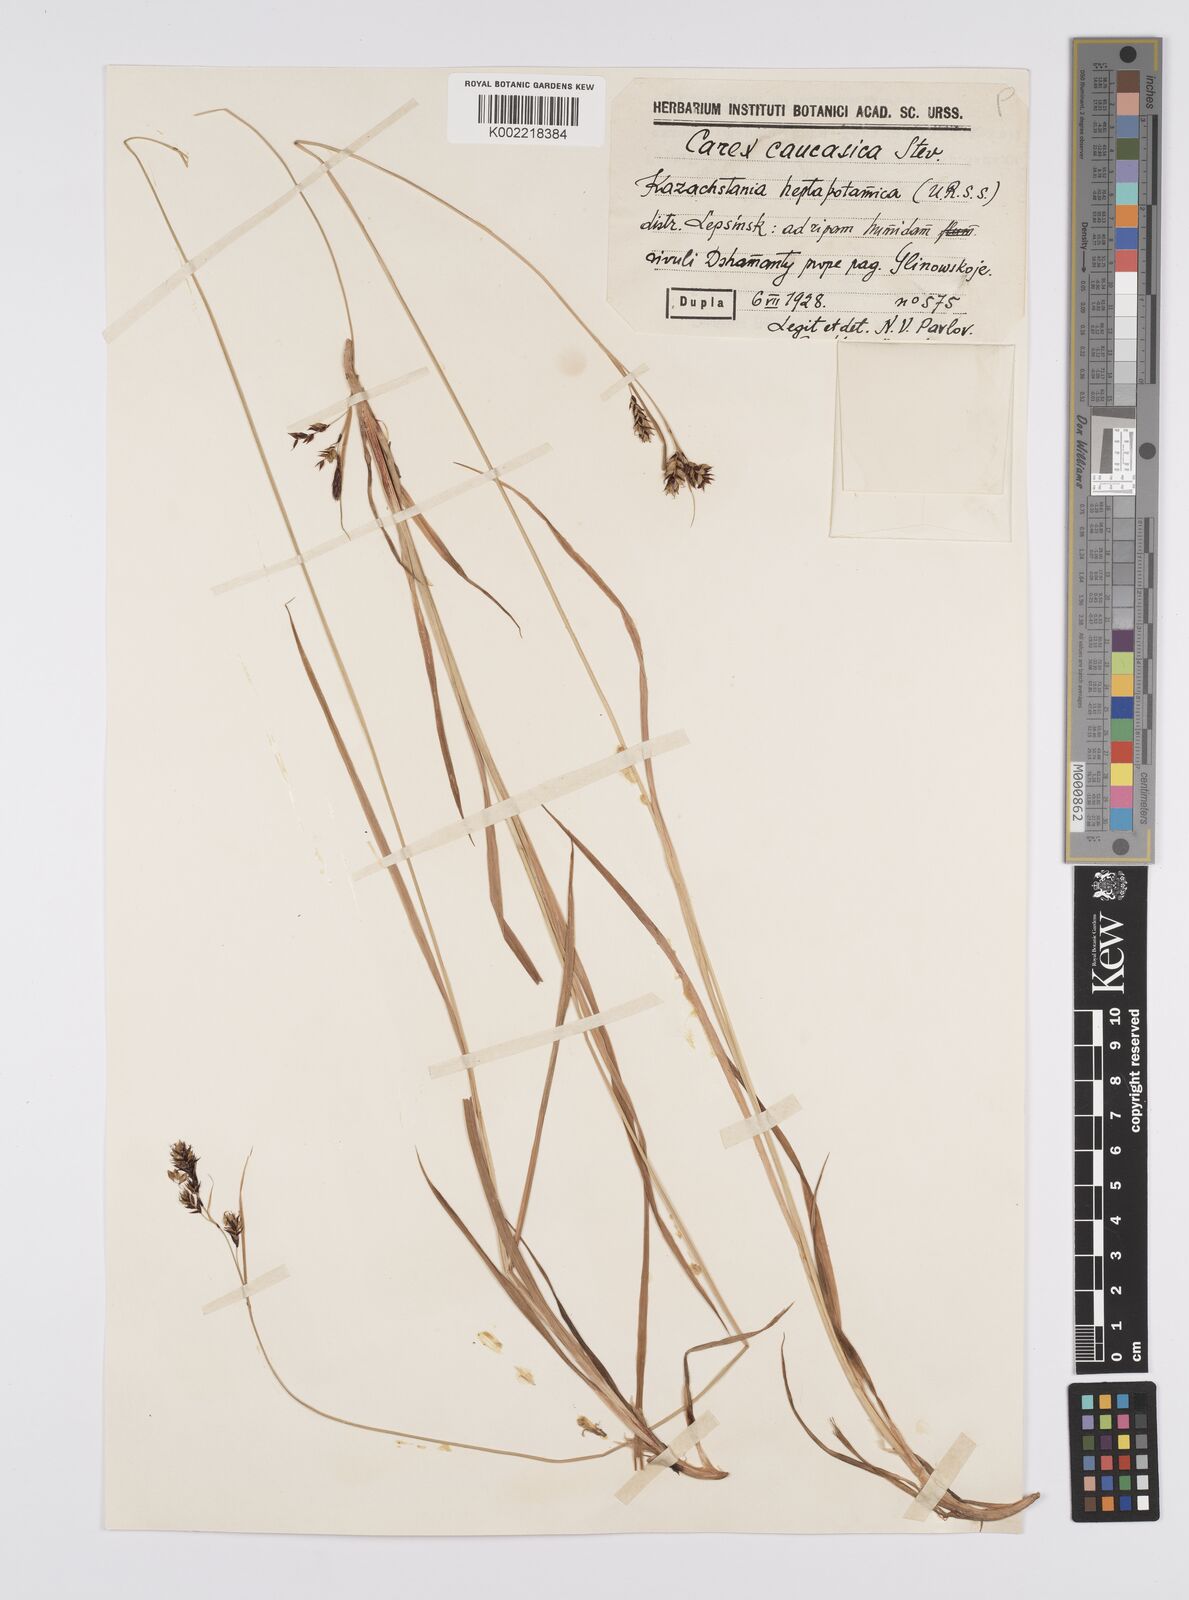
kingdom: Plantae
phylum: Tracheophyta
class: Liliopsida
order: Poales
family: Cyperaceae
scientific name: Cyperaceae
